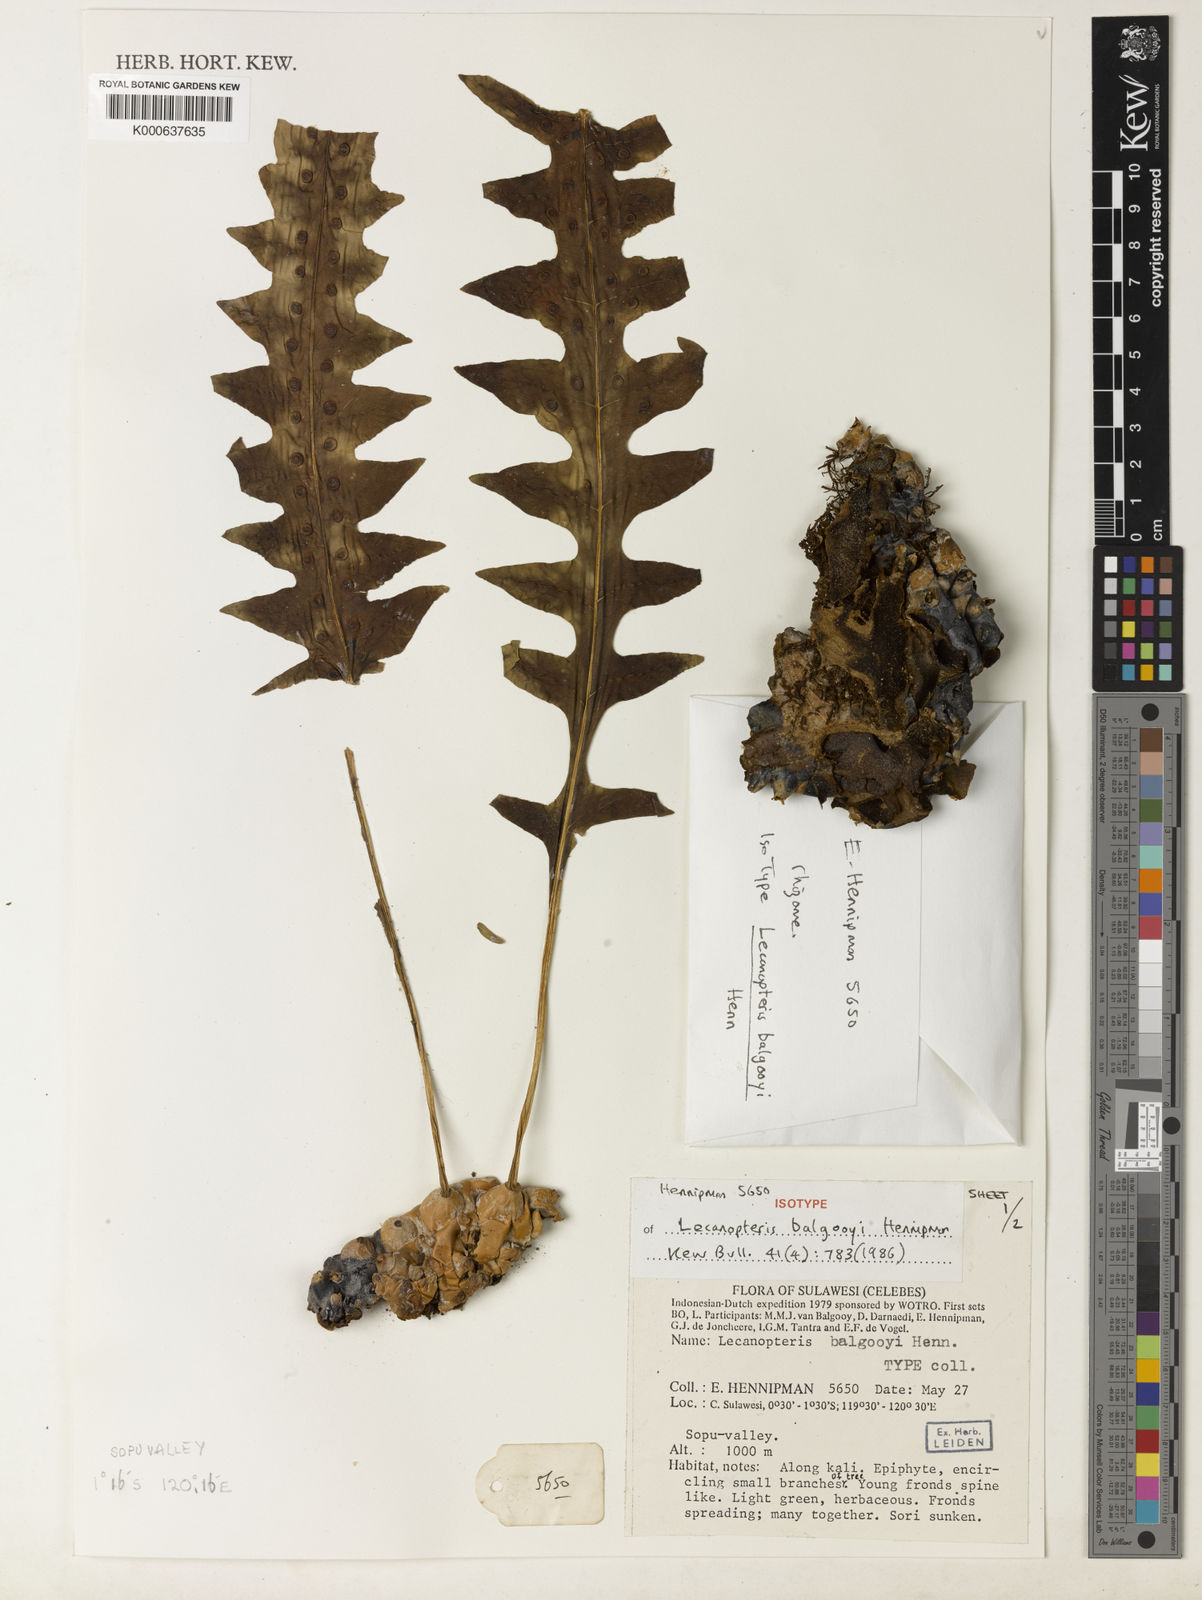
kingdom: Plantae
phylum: Tracheophyta
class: Polypodiopsida
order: Polypodiales
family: Polypodiaceae
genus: Lecanopteris
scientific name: Lecanopteris balgooyi
